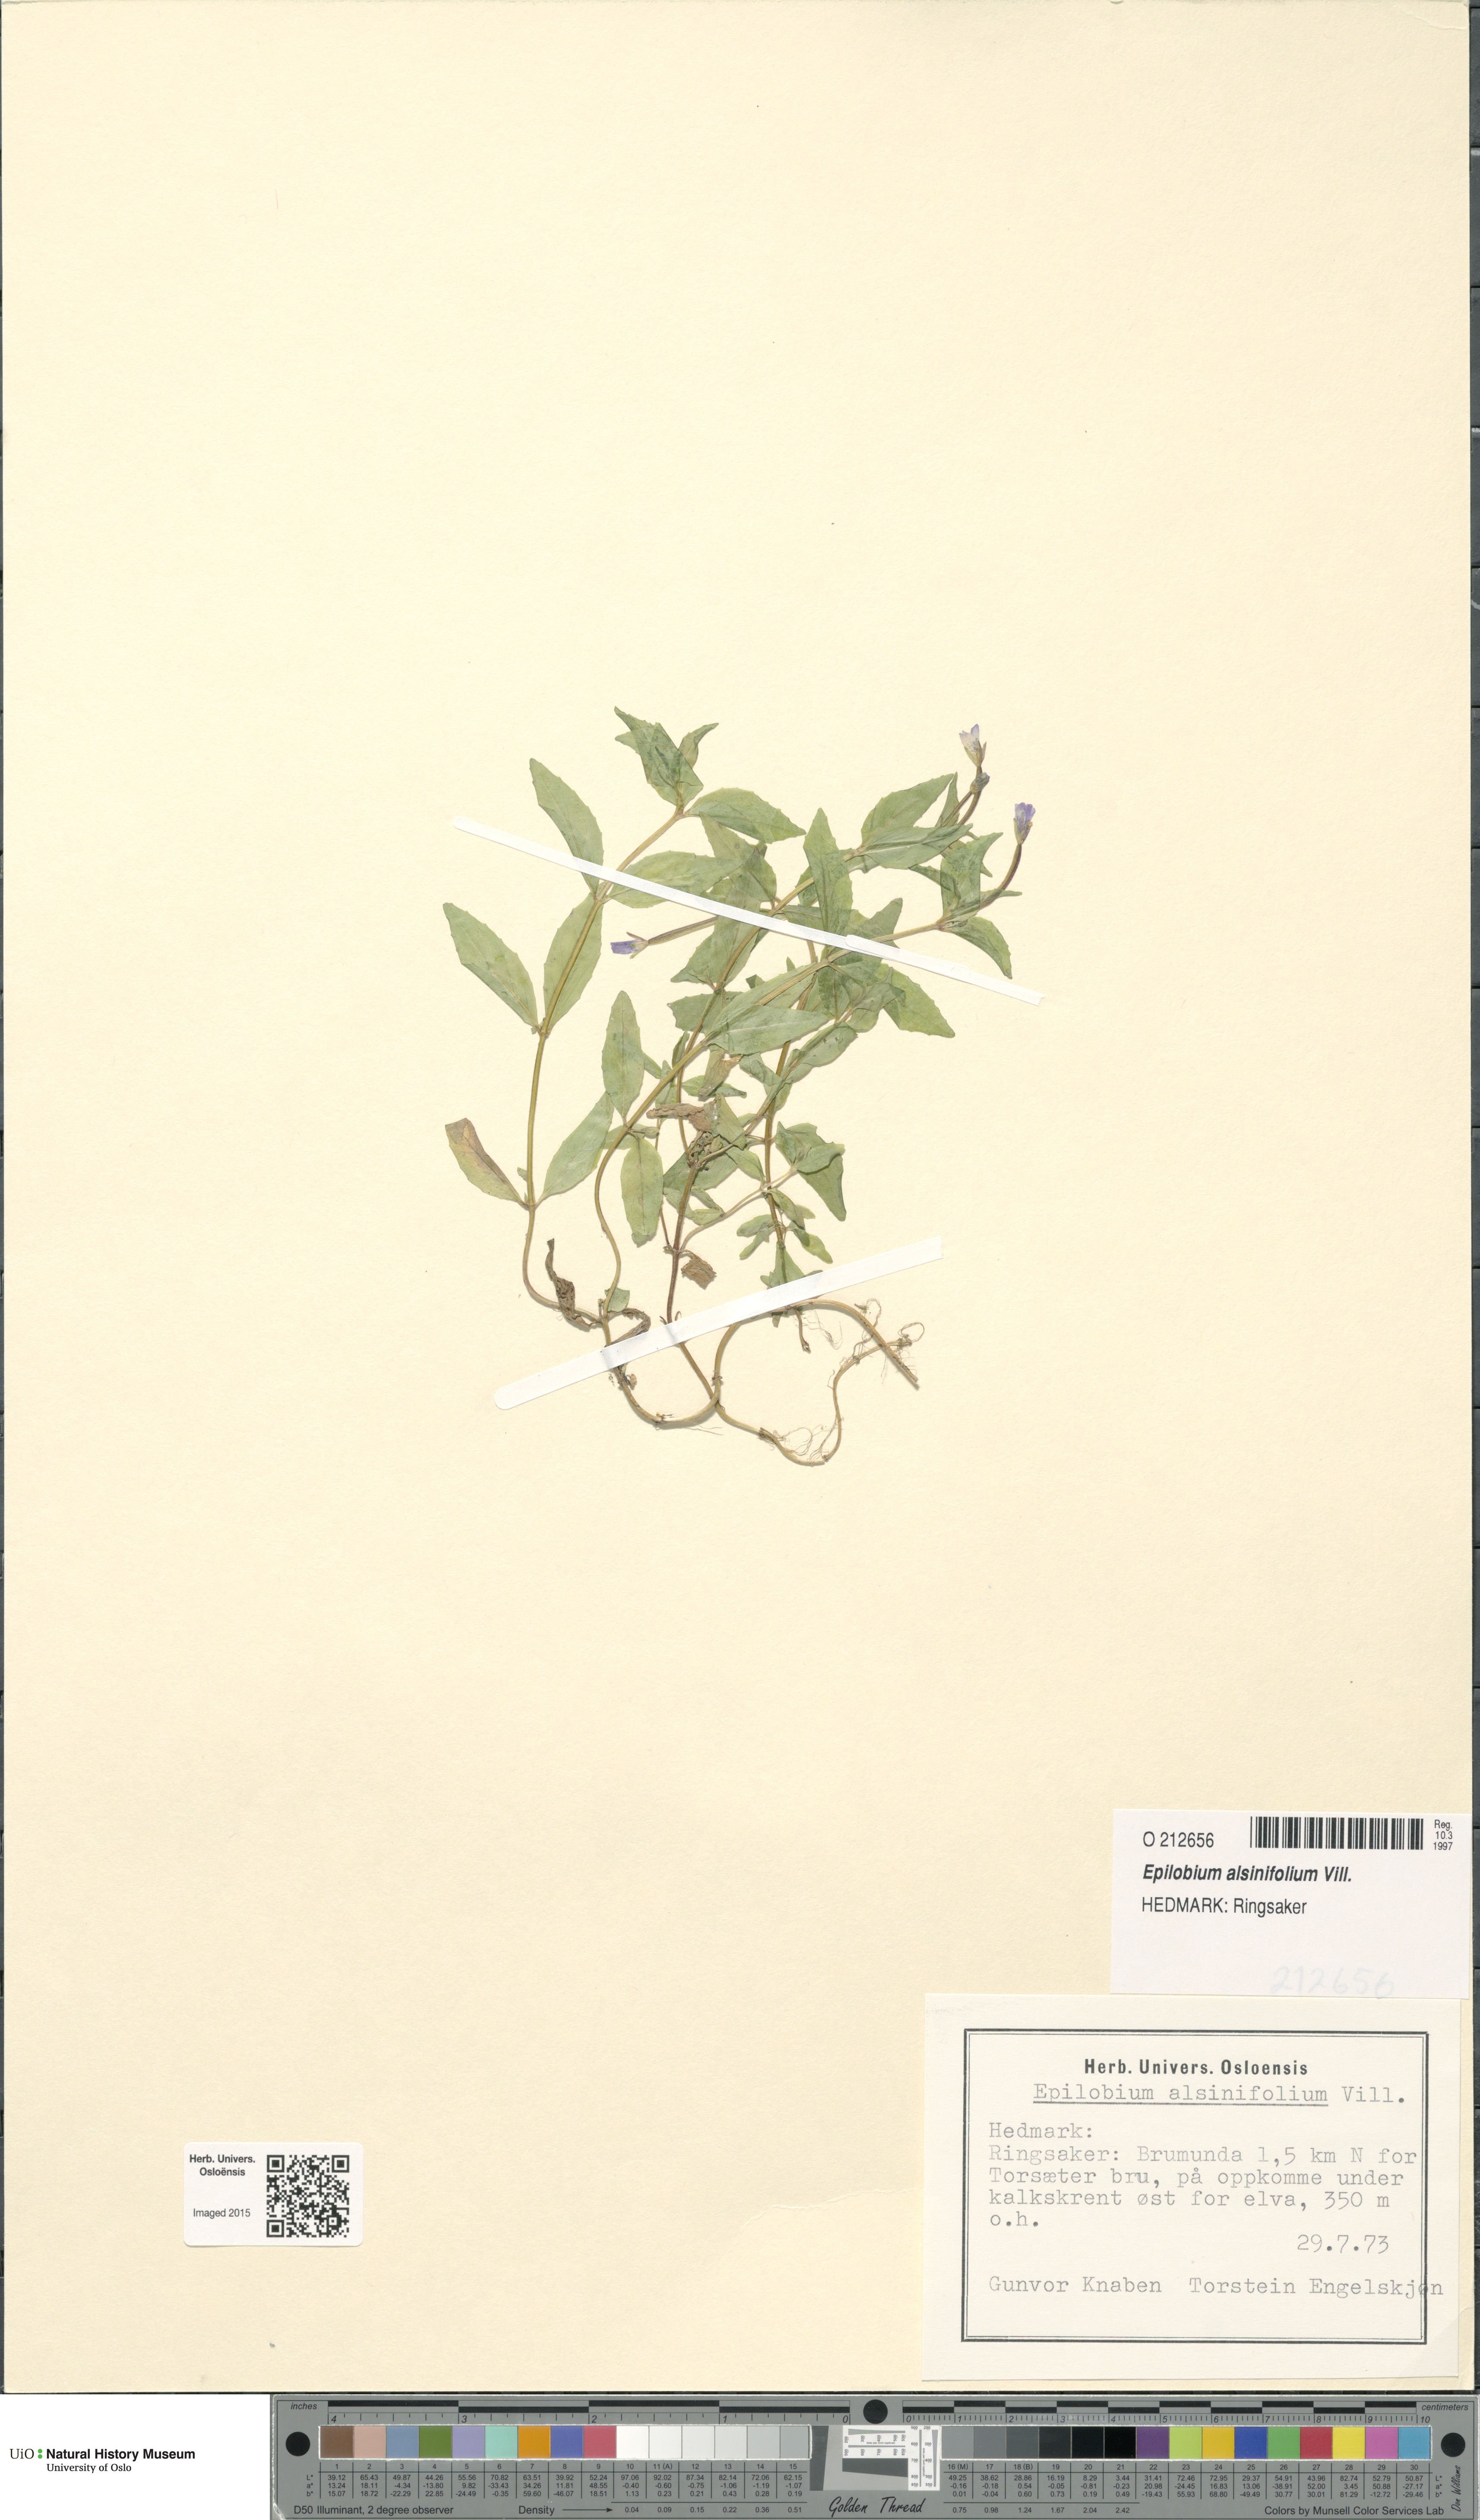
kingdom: Plantae
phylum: Tracheophyta
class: Magnoliopsida
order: Myrtales
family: Onagraceae
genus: Epilobium
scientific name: Epilobium alsinifolium
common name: Chickweed willowherb
